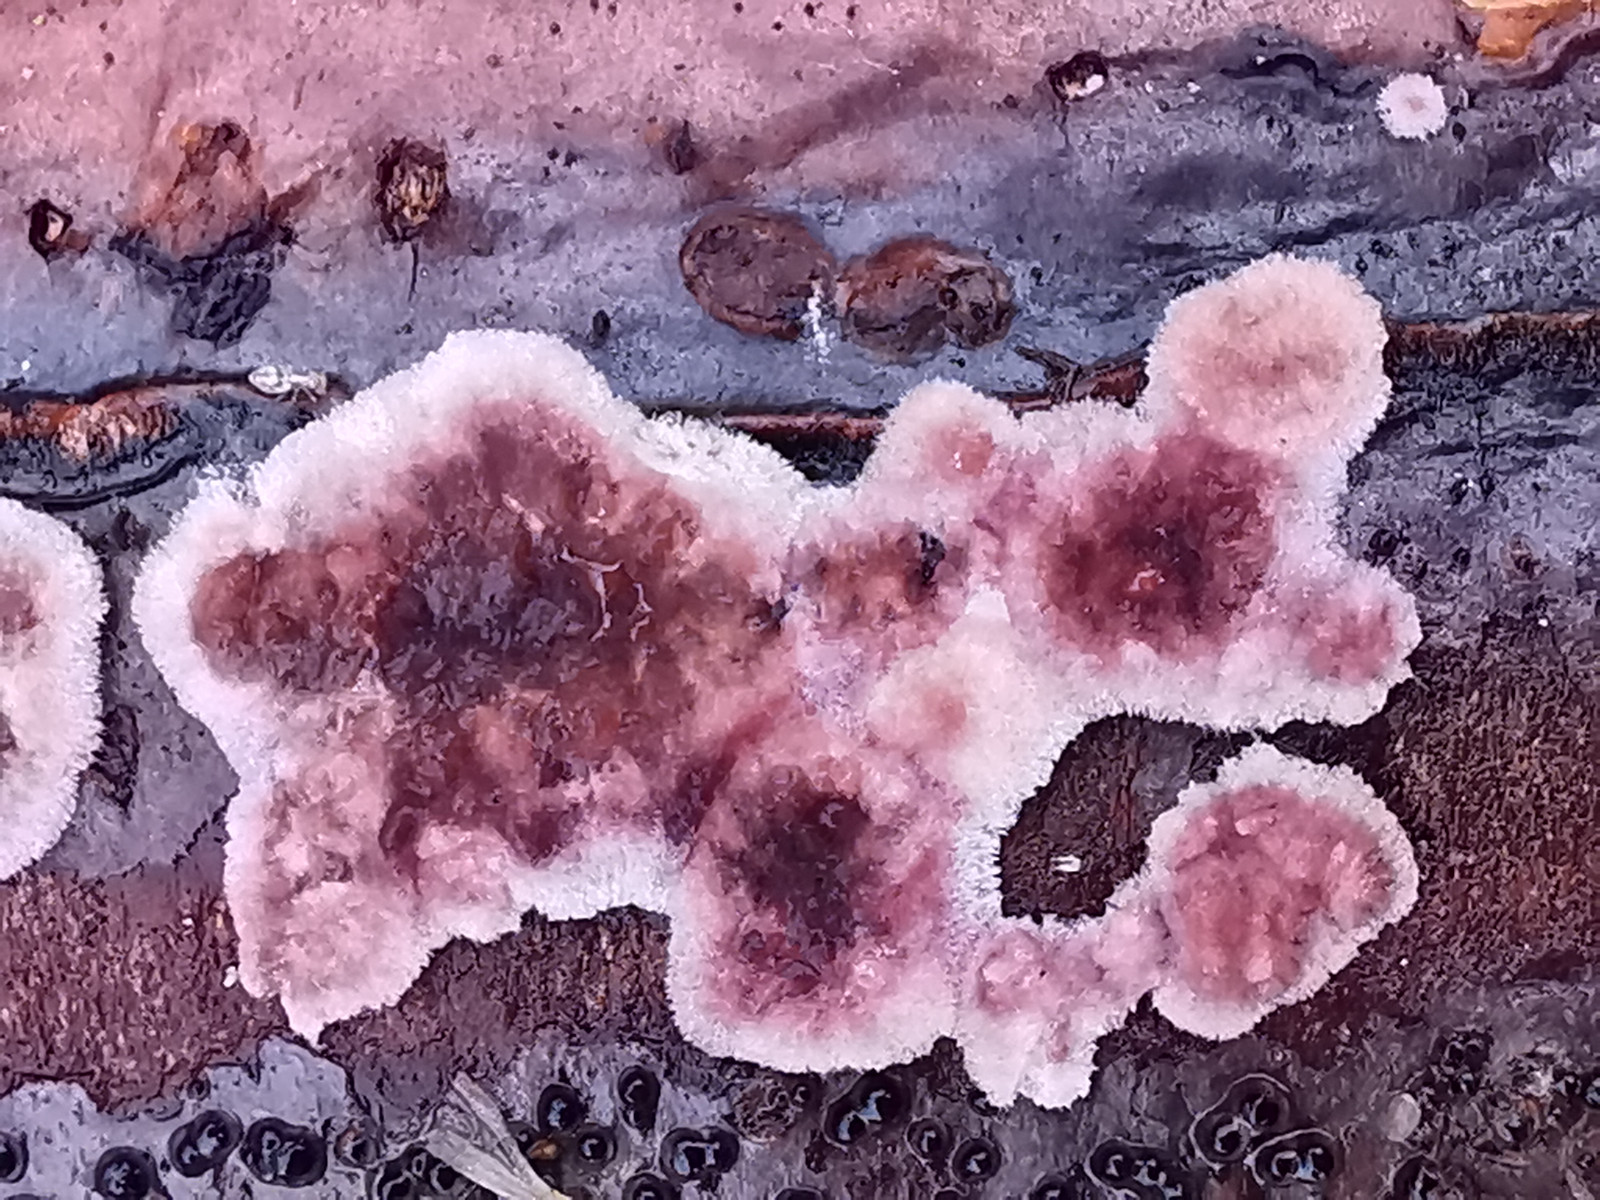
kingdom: Fungi
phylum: Basidiomycota
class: Agaricomycetes
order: Agaricales
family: Cyphellaceae
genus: Chondrostereum
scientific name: Chondrostereum purpureum
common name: purpurlædersvamp
